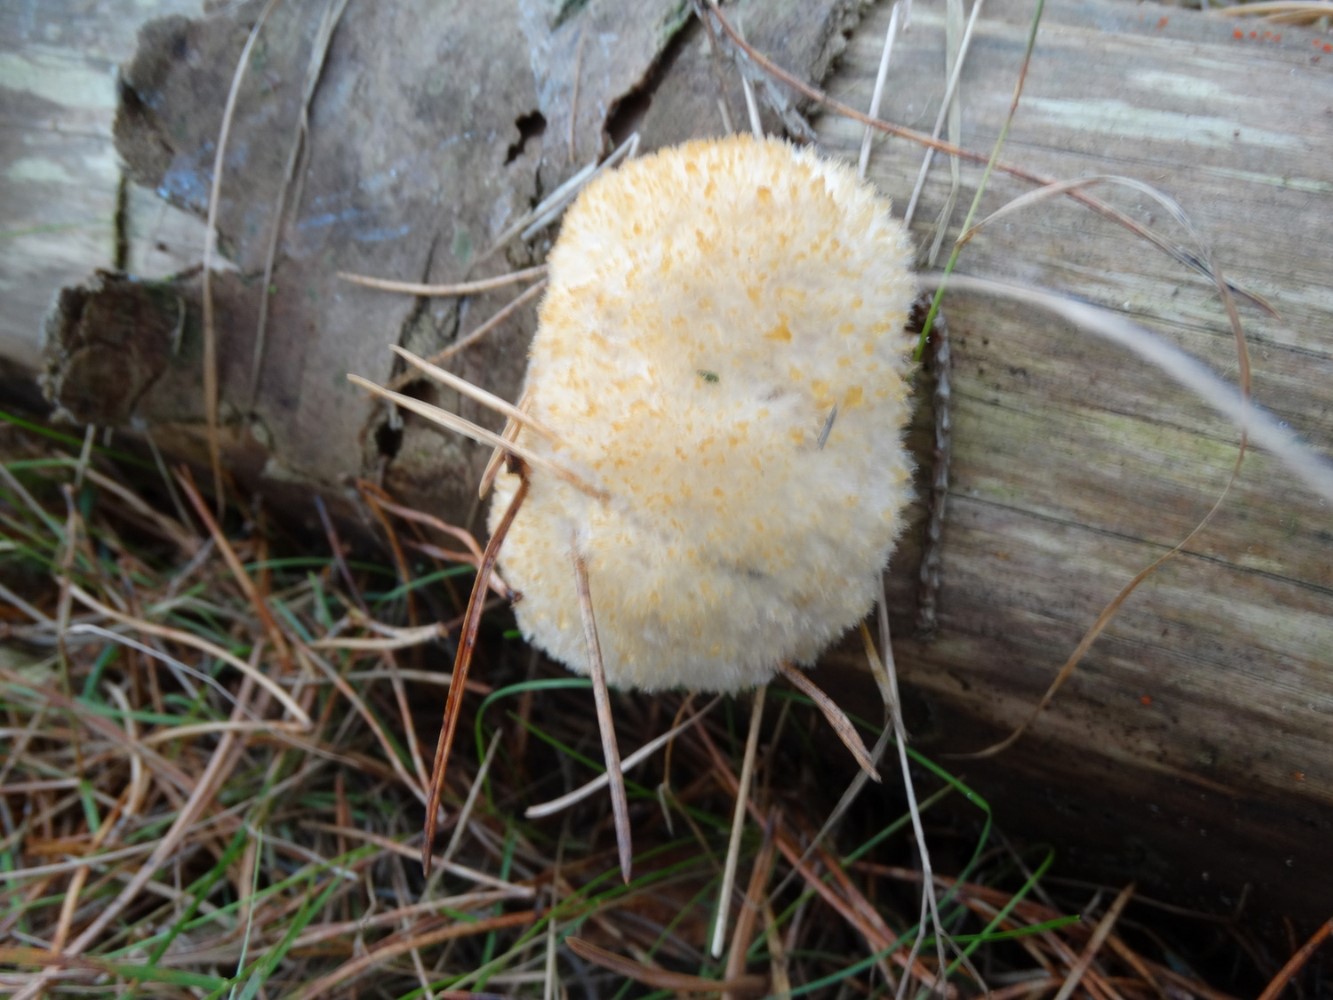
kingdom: Fungi
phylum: Basidiomycota
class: Agaricomycetes
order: Polyporales
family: Dacryobolaceae
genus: Postia
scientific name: Postia ptychogaster
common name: støvende kødporesvamp
